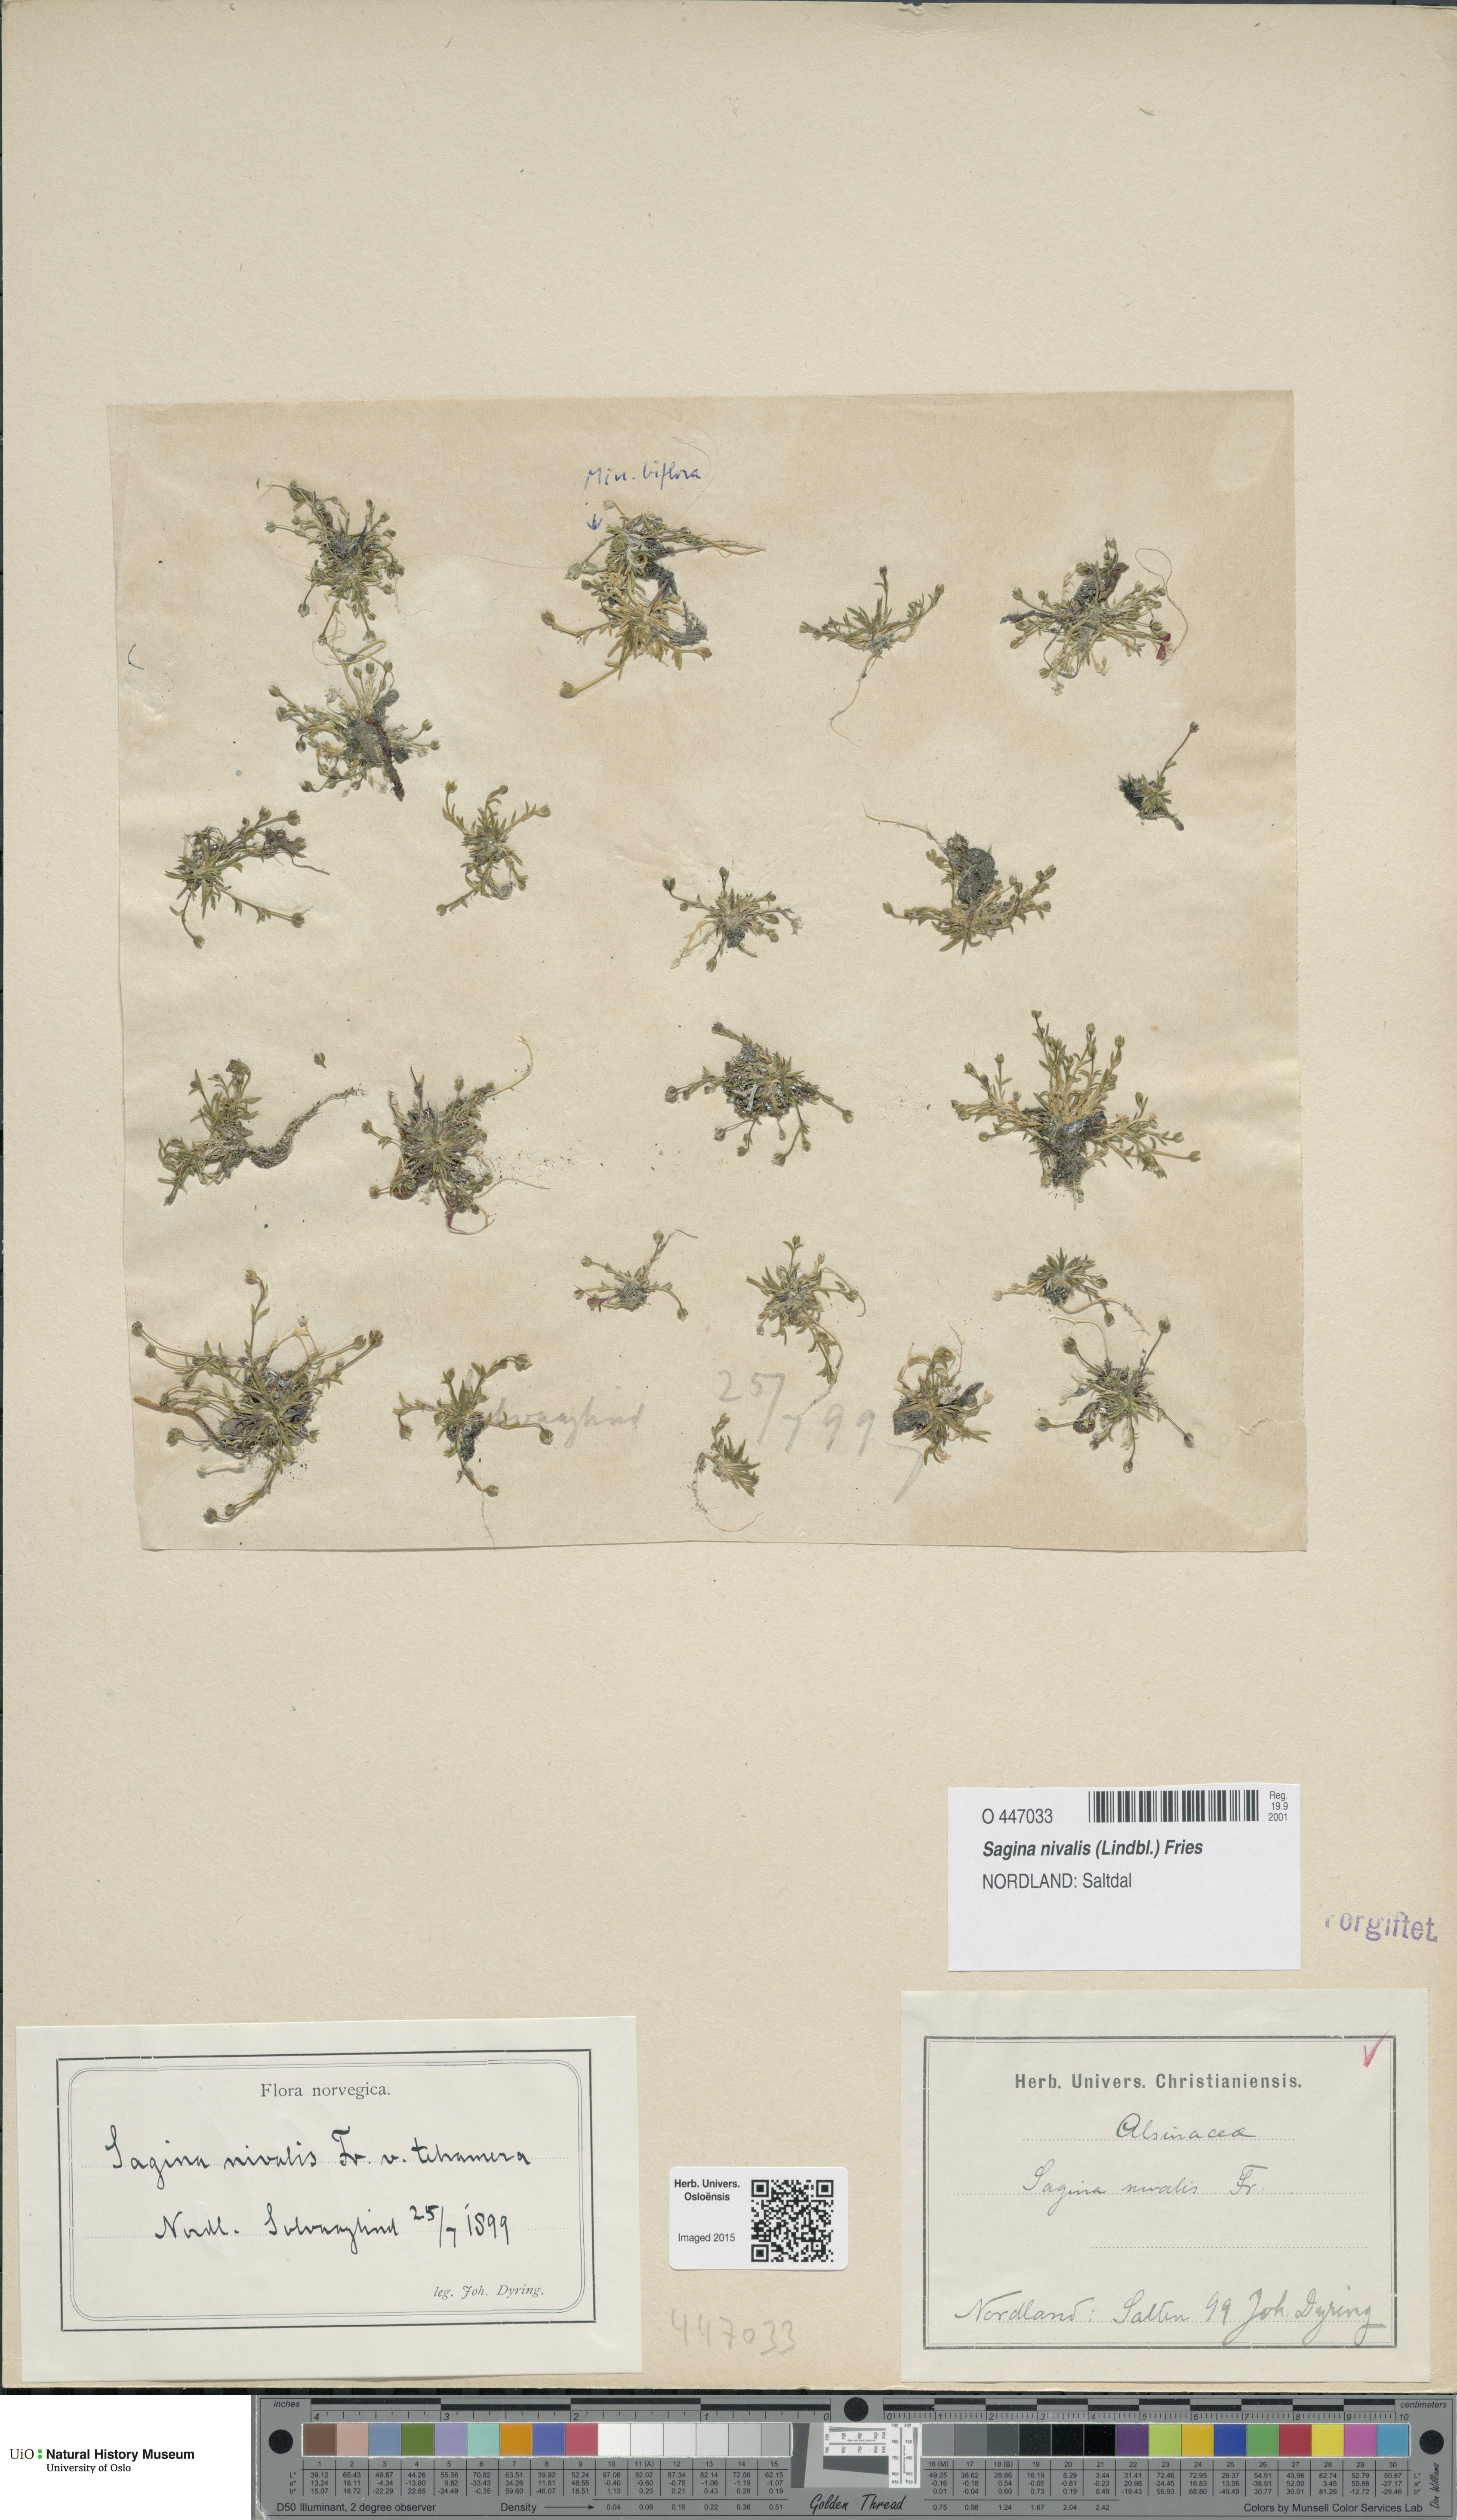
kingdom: Plantae
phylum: Tracheophyta
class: Magnoliopsida
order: Caryophyllales
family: Caryophyllaceae
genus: Sagina
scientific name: Sagina nivalis
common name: Snow pearlwort
